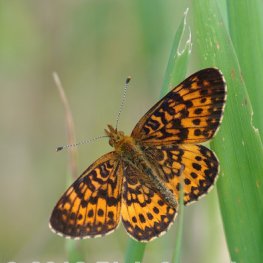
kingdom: Animalia
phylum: Arthropoda
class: Insecta
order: Lepidoptera
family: Nymphalidae
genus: Boloria
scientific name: Boloria selene
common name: Silver-bordered Fritillary
